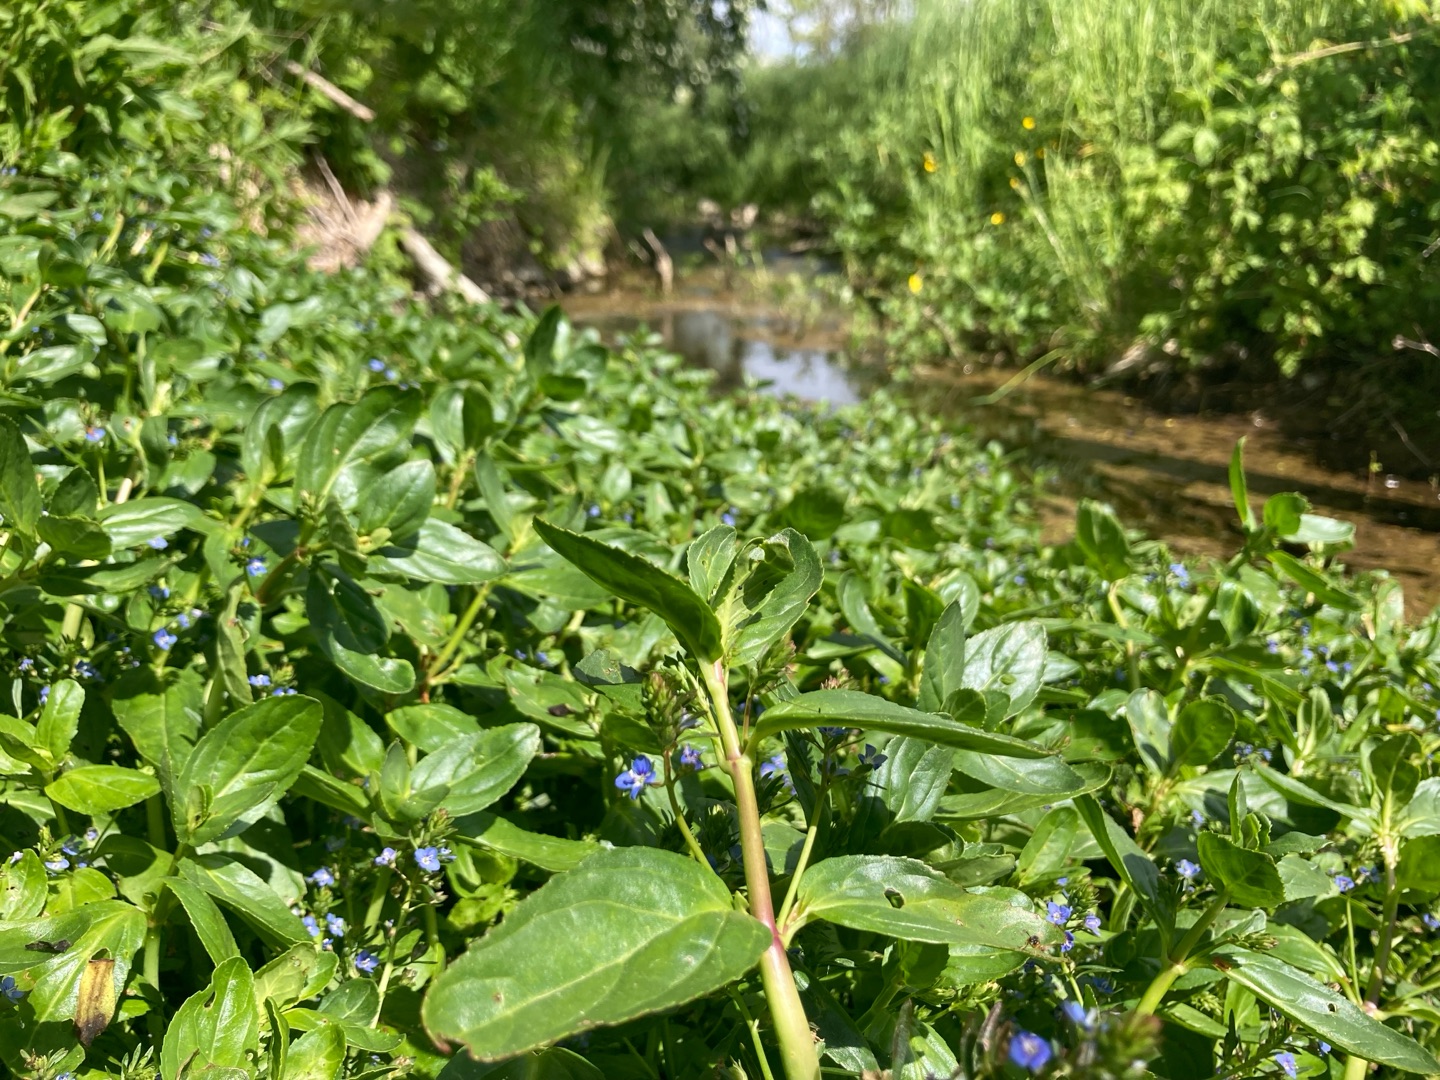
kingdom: Plantae
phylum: Tracheophyta
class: Magnoliopsida
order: Lamiales
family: Plantaginaceae
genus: Veronica
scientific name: Veronica beccabunga
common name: Tykbladet ærenpris
